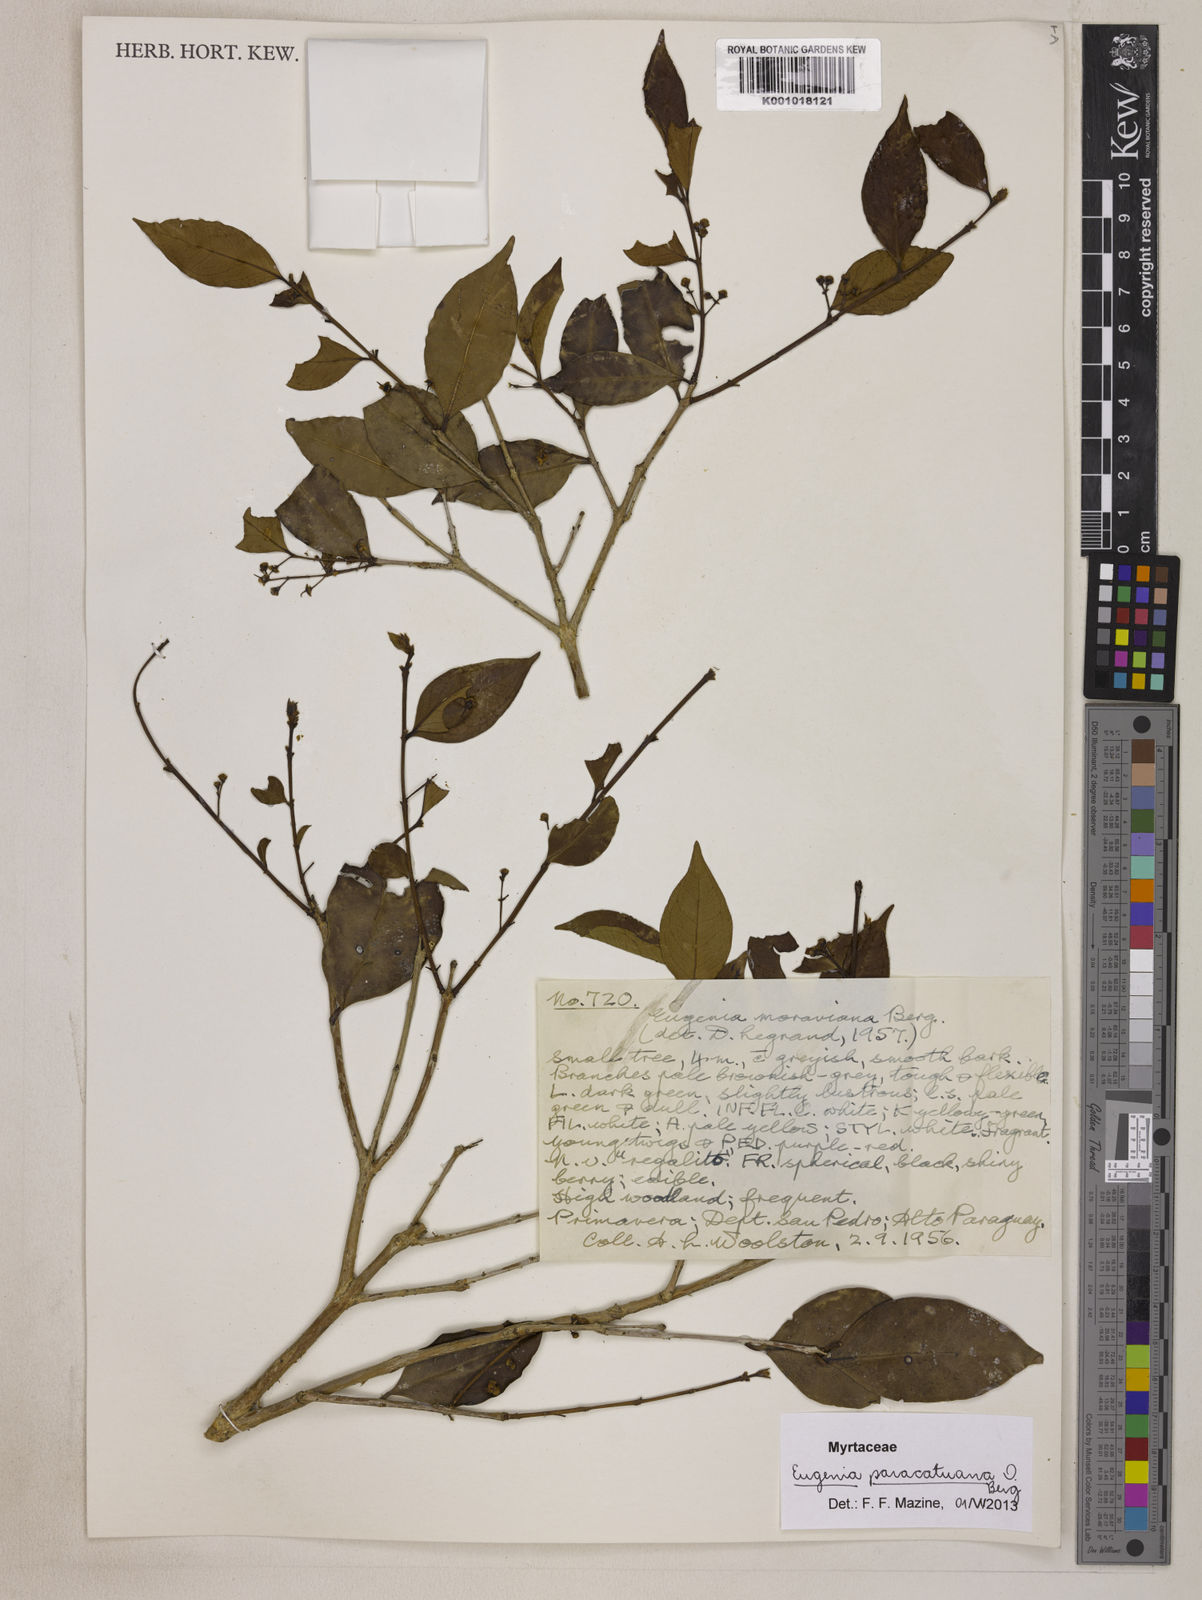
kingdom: Plantae
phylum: Tracheophyta
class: Magnoliopsida
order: Myrtales
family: Myrtaceae
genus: Eugenia
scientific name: Eugenia moraviana
